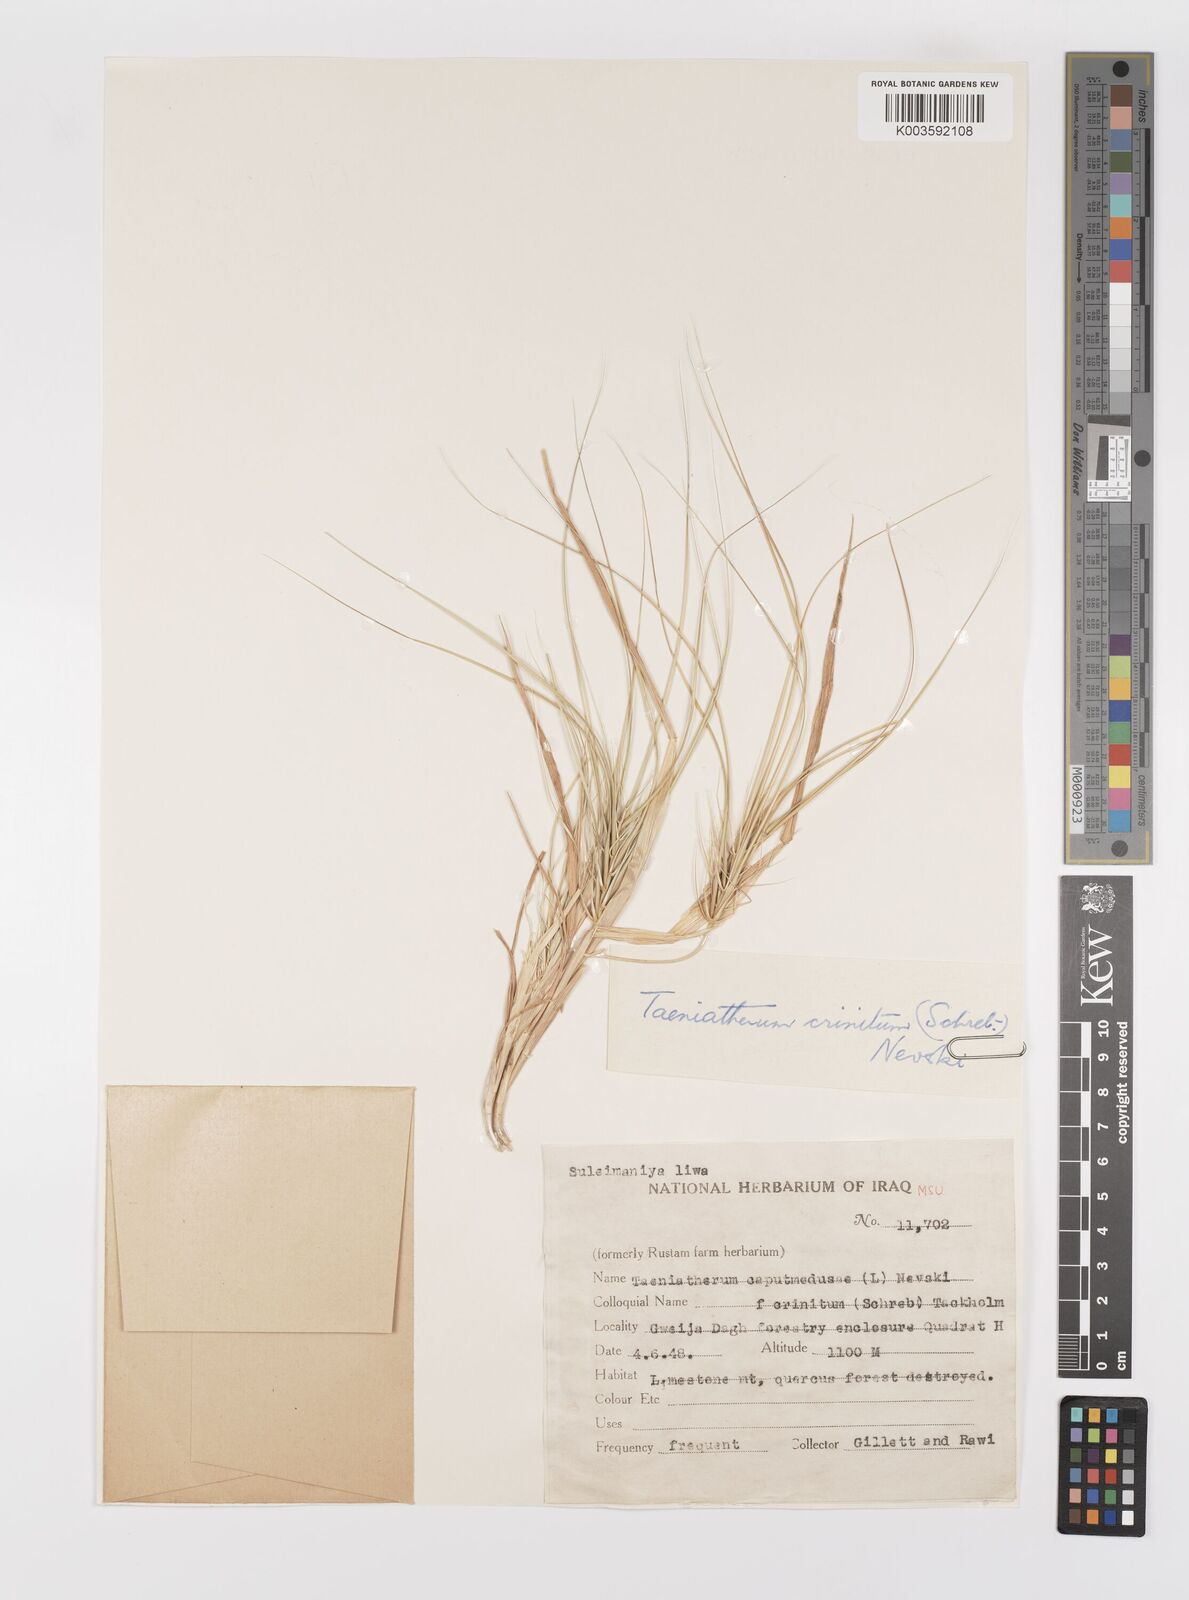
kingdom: Plantae
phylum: Tracheophyta
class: Liliopsida
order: Poales
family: Poaceae
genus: Taeniatherum
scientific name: Taeniatherum caput-medusae
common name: Medusahead
